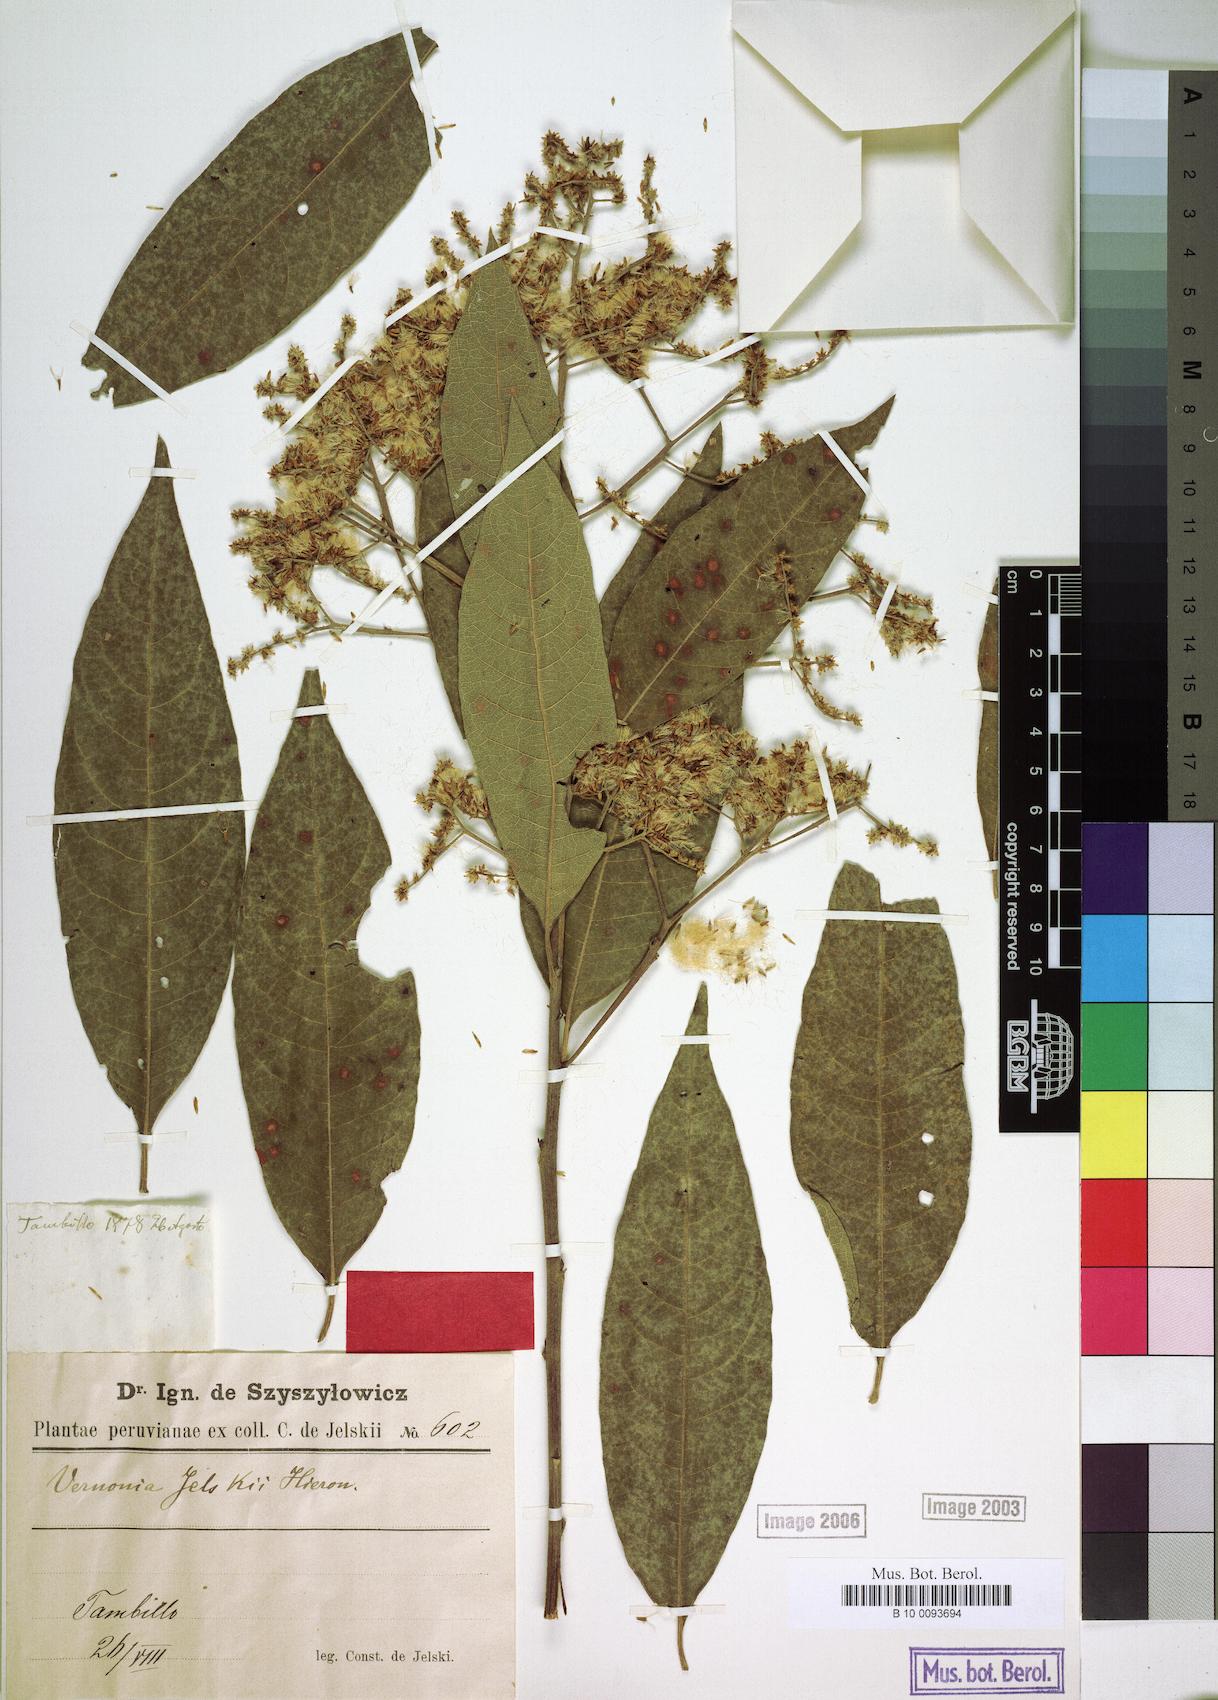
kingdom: Plantae
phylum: Tracheophyta
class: Magnoliopsida
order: Asterales
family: Asteraceae
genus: Critoniopsis
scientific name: Critoniopsis jelskii
